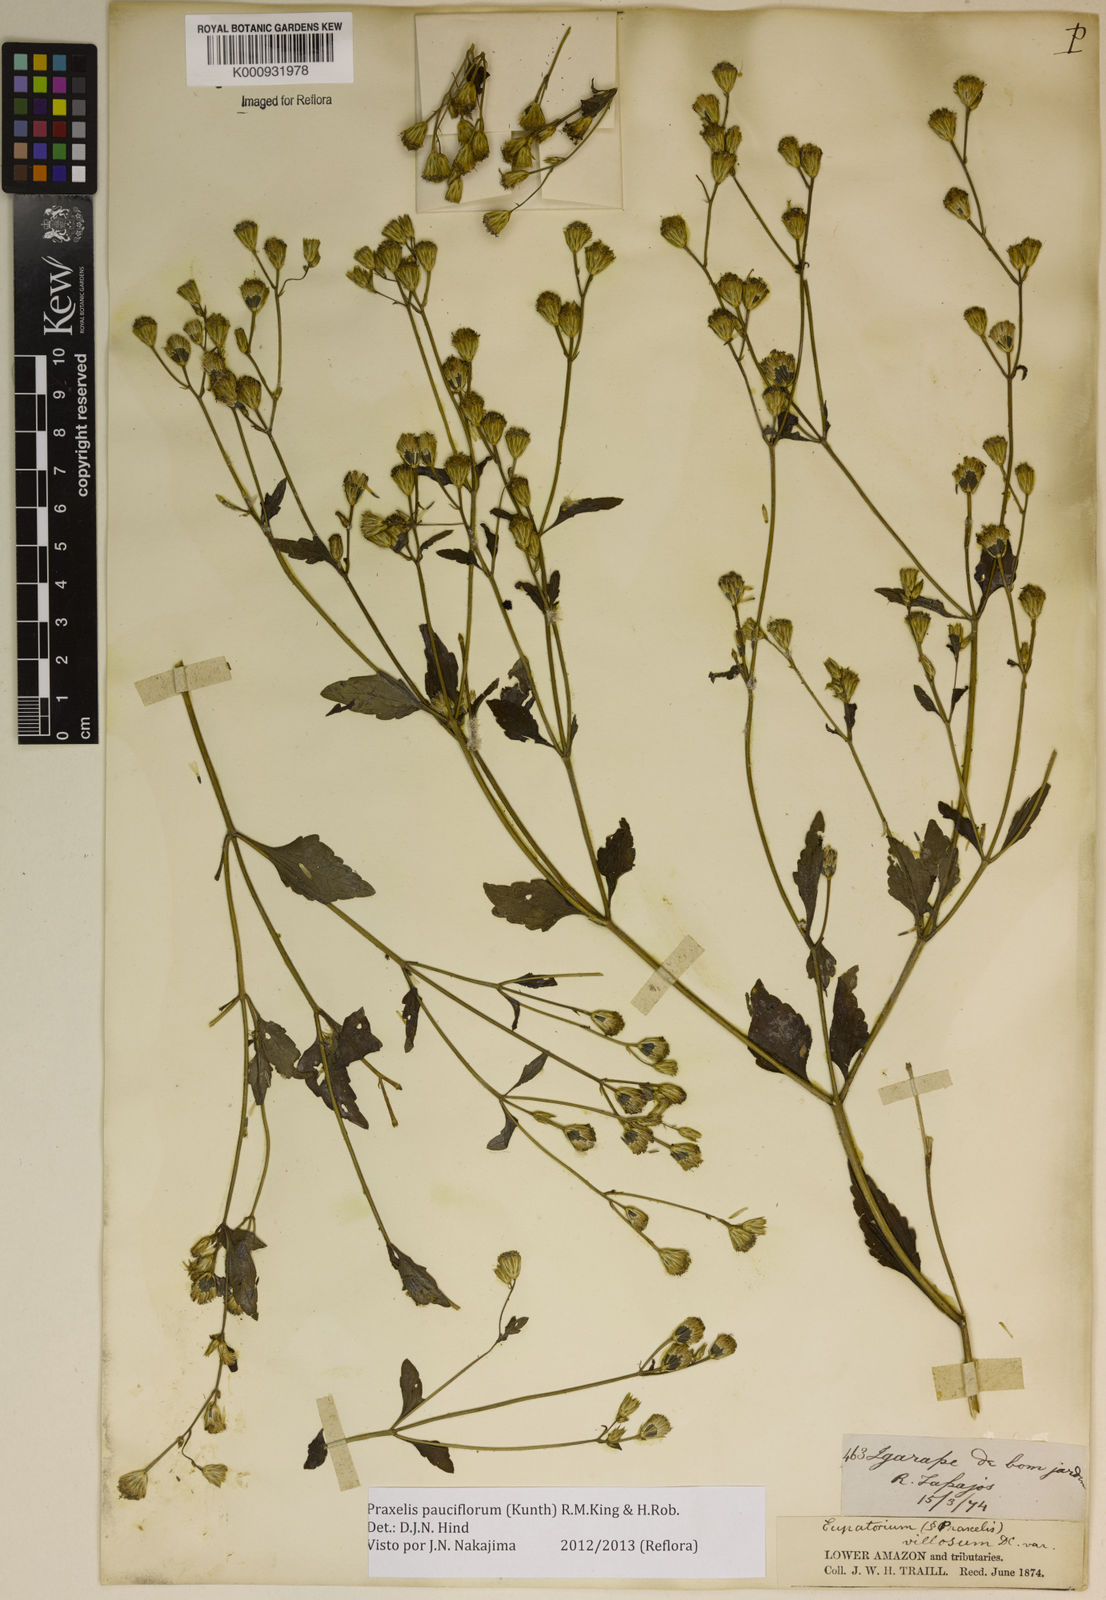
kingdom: Plantae
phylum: Tracheophyta
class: Magnoliopsida
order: Asterales
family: Asteraceae
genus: Praxelis
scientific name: Praxelis diffusa
